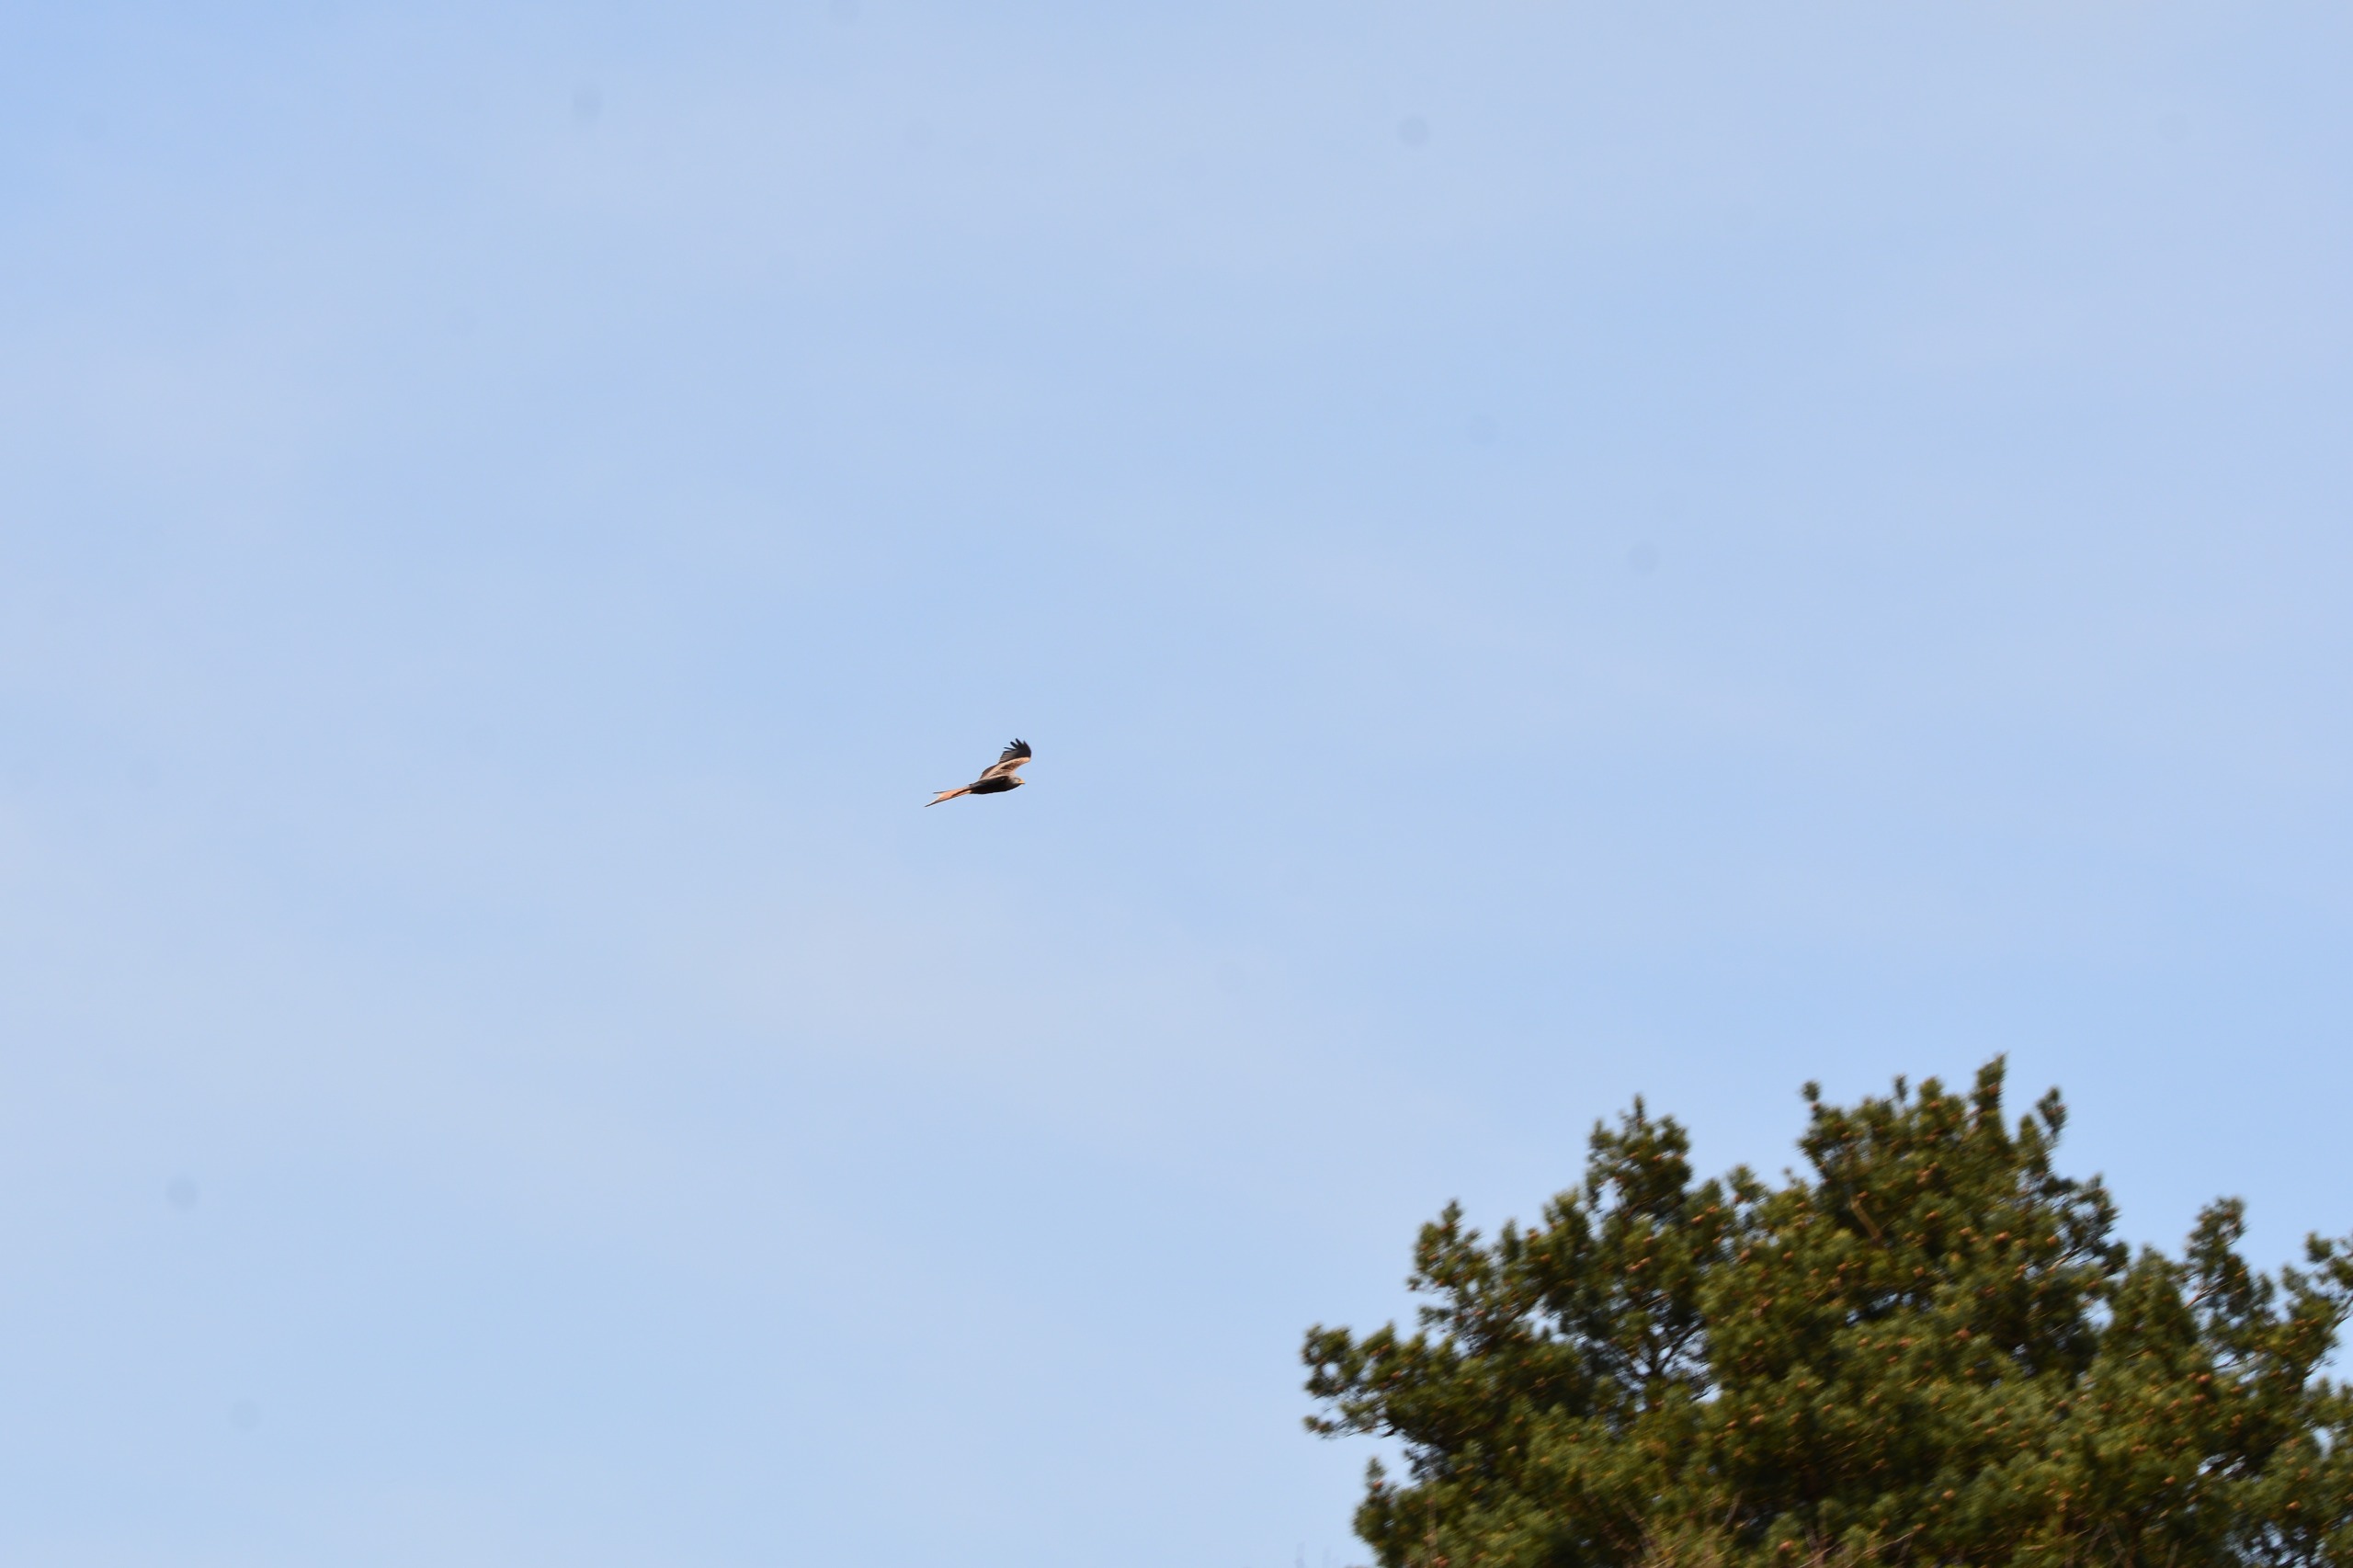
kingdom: Animalia
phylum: Chordata
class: Aves
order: Accipitriformes
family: Accipitridae
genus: Milvus
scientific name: Milvus milvus
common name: Rød glente
